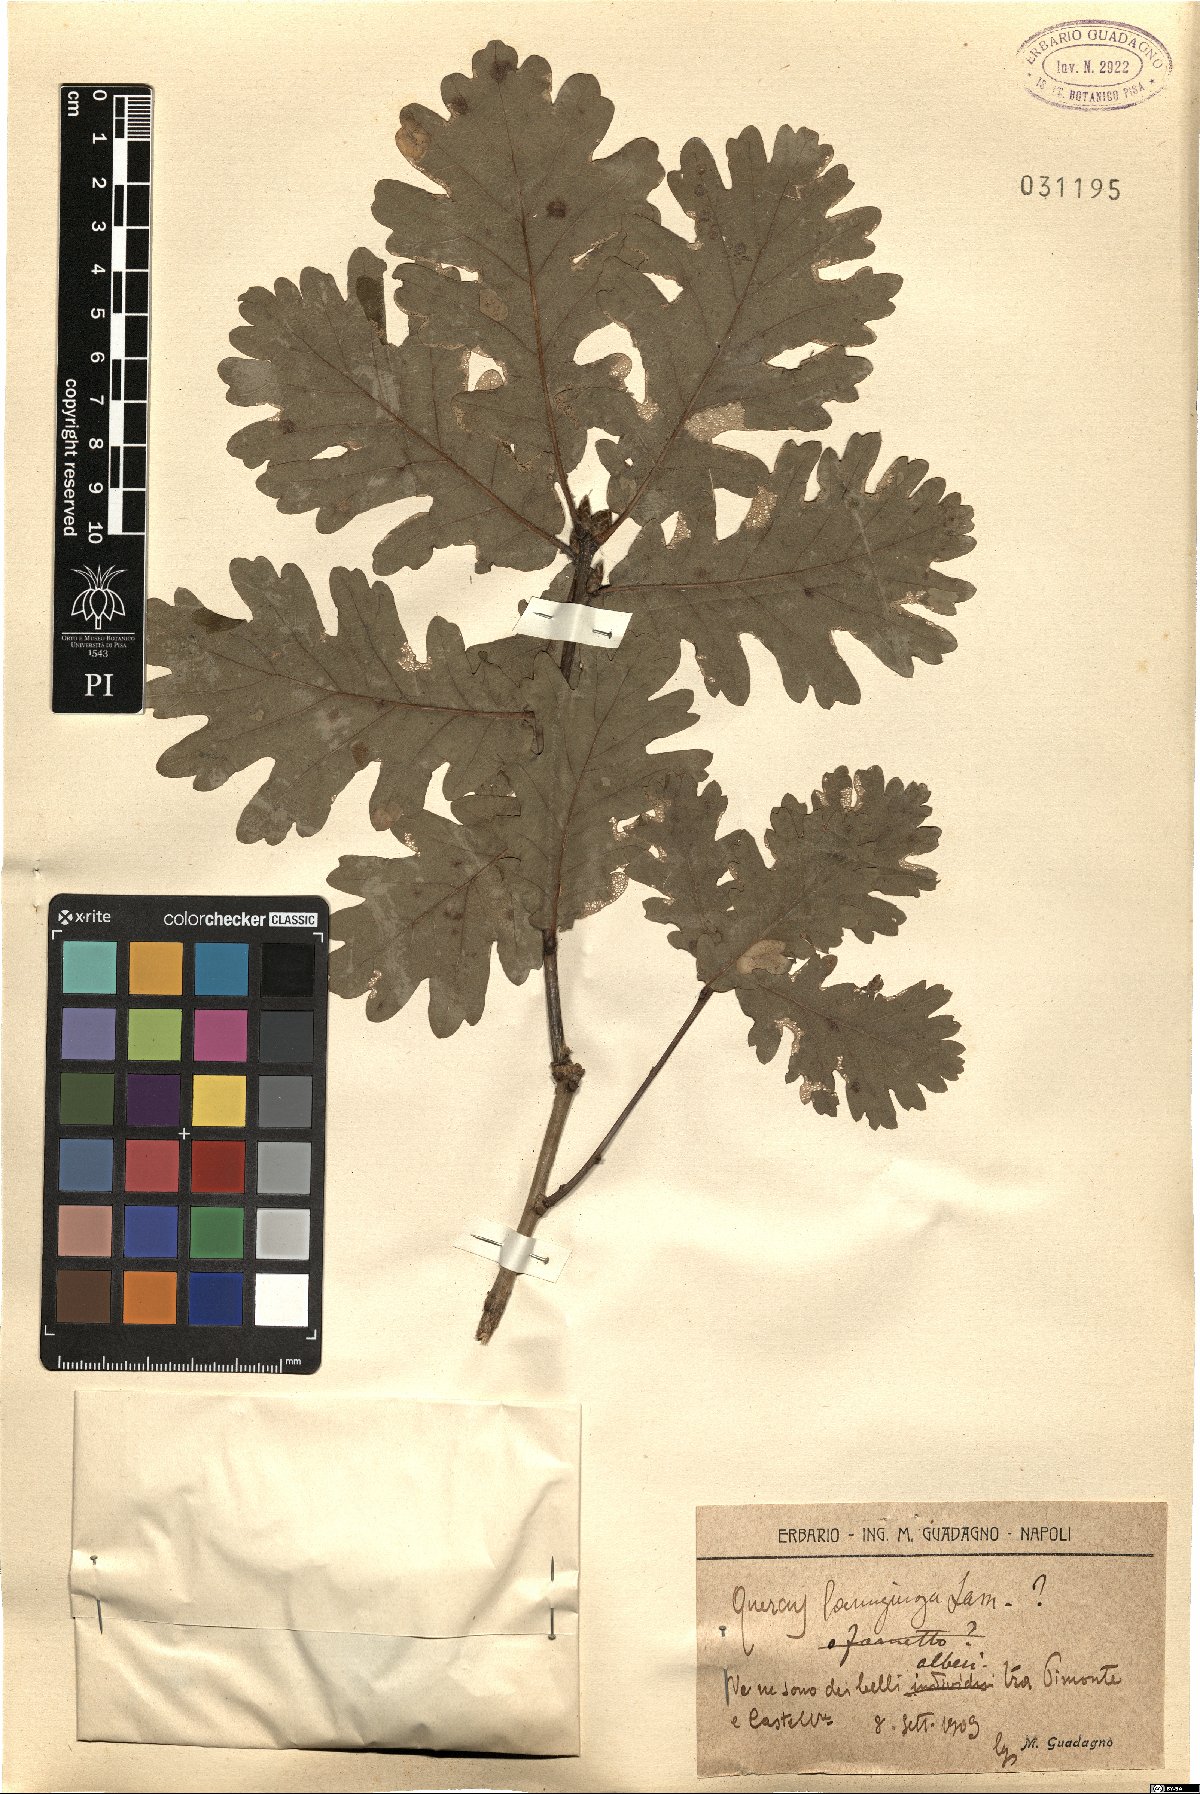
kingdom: Plantae
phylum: Tracheophyta
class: Magnoliopsida
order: Fagales
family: Fagaceae
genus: Quercus
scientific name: Quercus cerris
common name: Turkey oak
